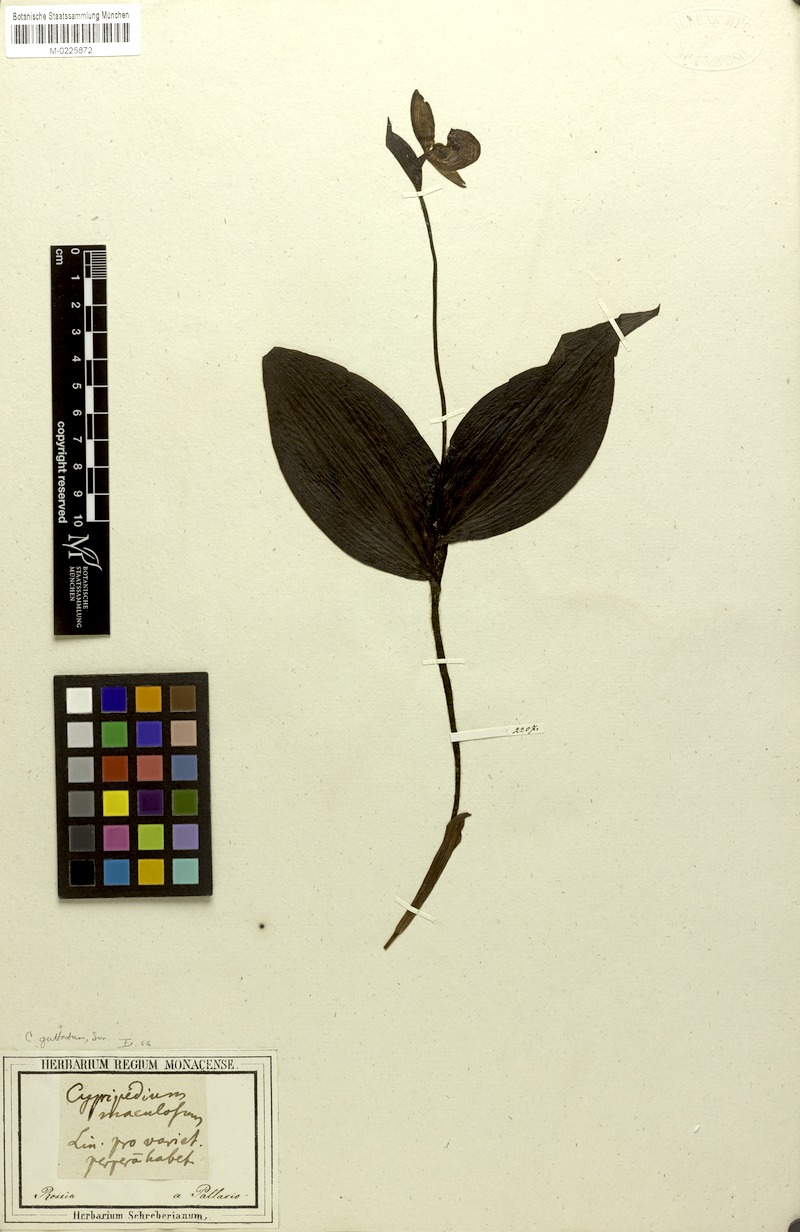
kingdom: Plantae
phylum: Tracheophyta
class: Liliopsida
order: Asparagales
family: Orchidaceae
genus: Cypripedium
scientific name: Cypripedium guttatum
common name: Pink lady slipper
